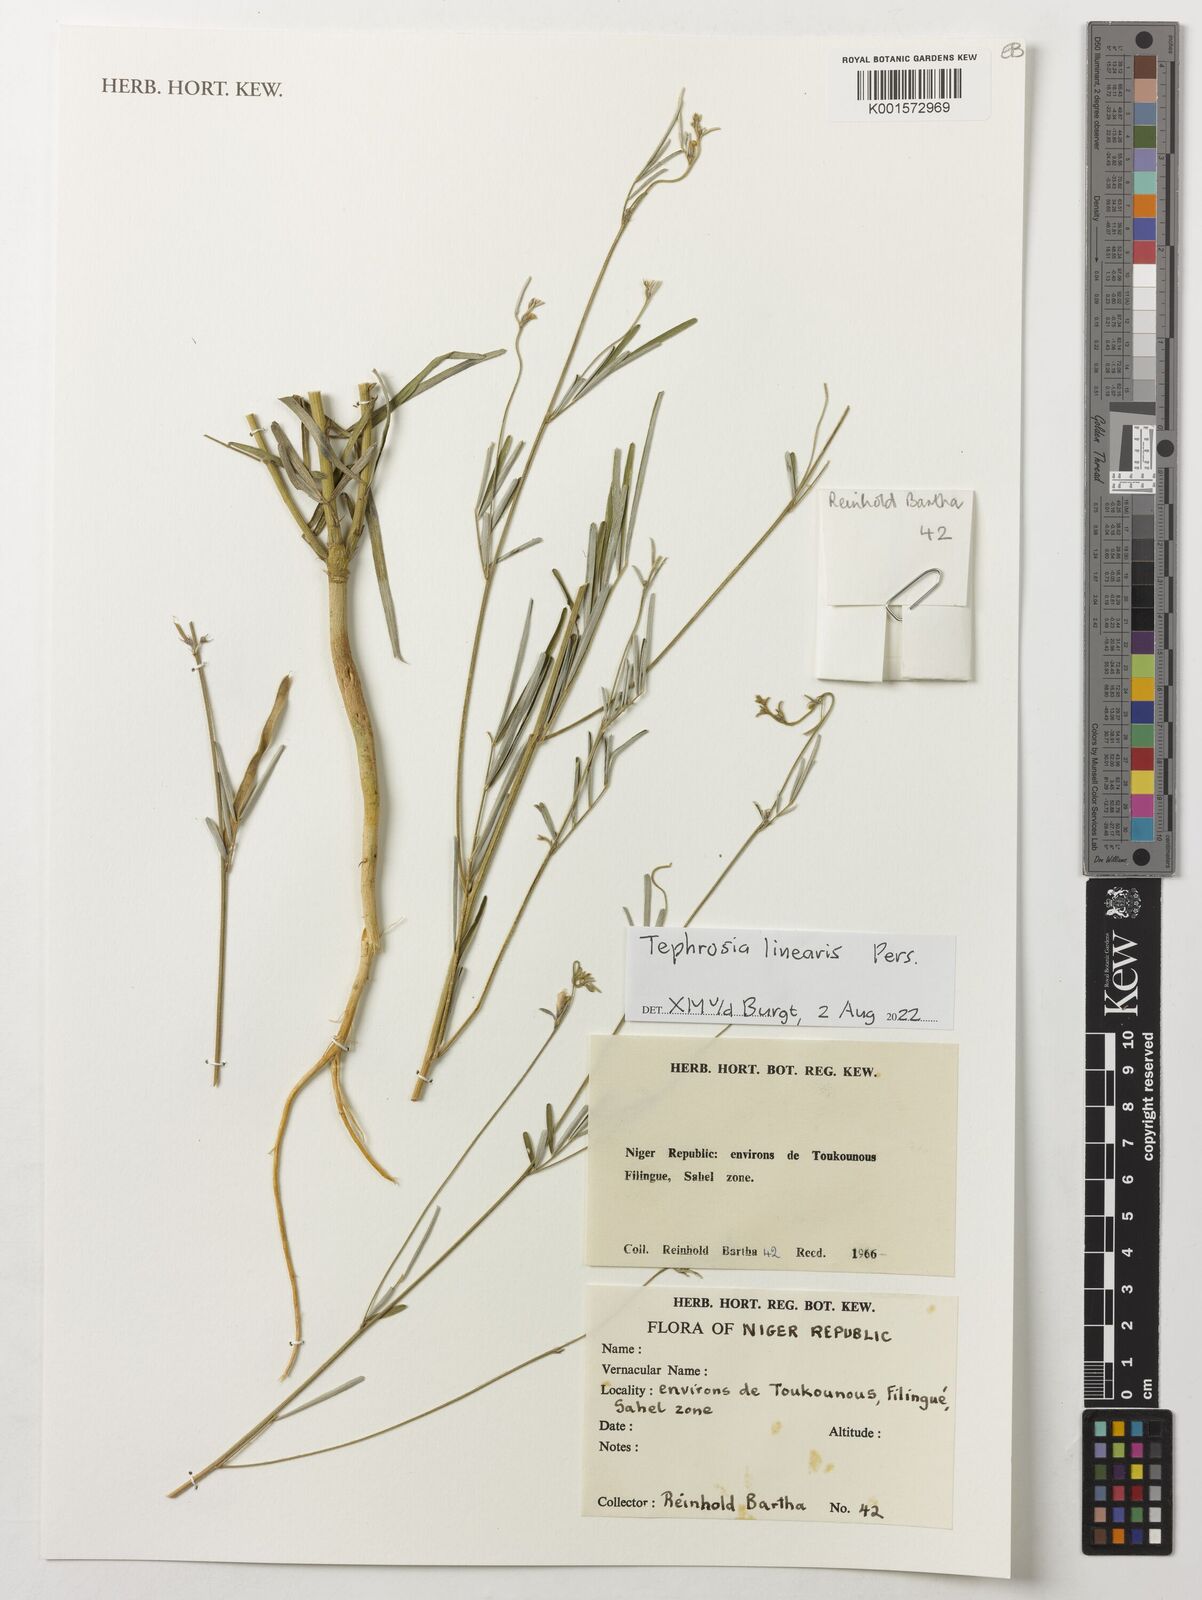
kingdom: Plantae
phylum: Tracheophyta
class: Magnoliopsida
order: Fabales
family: Fabaceae
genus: Tephrosia
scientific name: Tephrosia linearis
